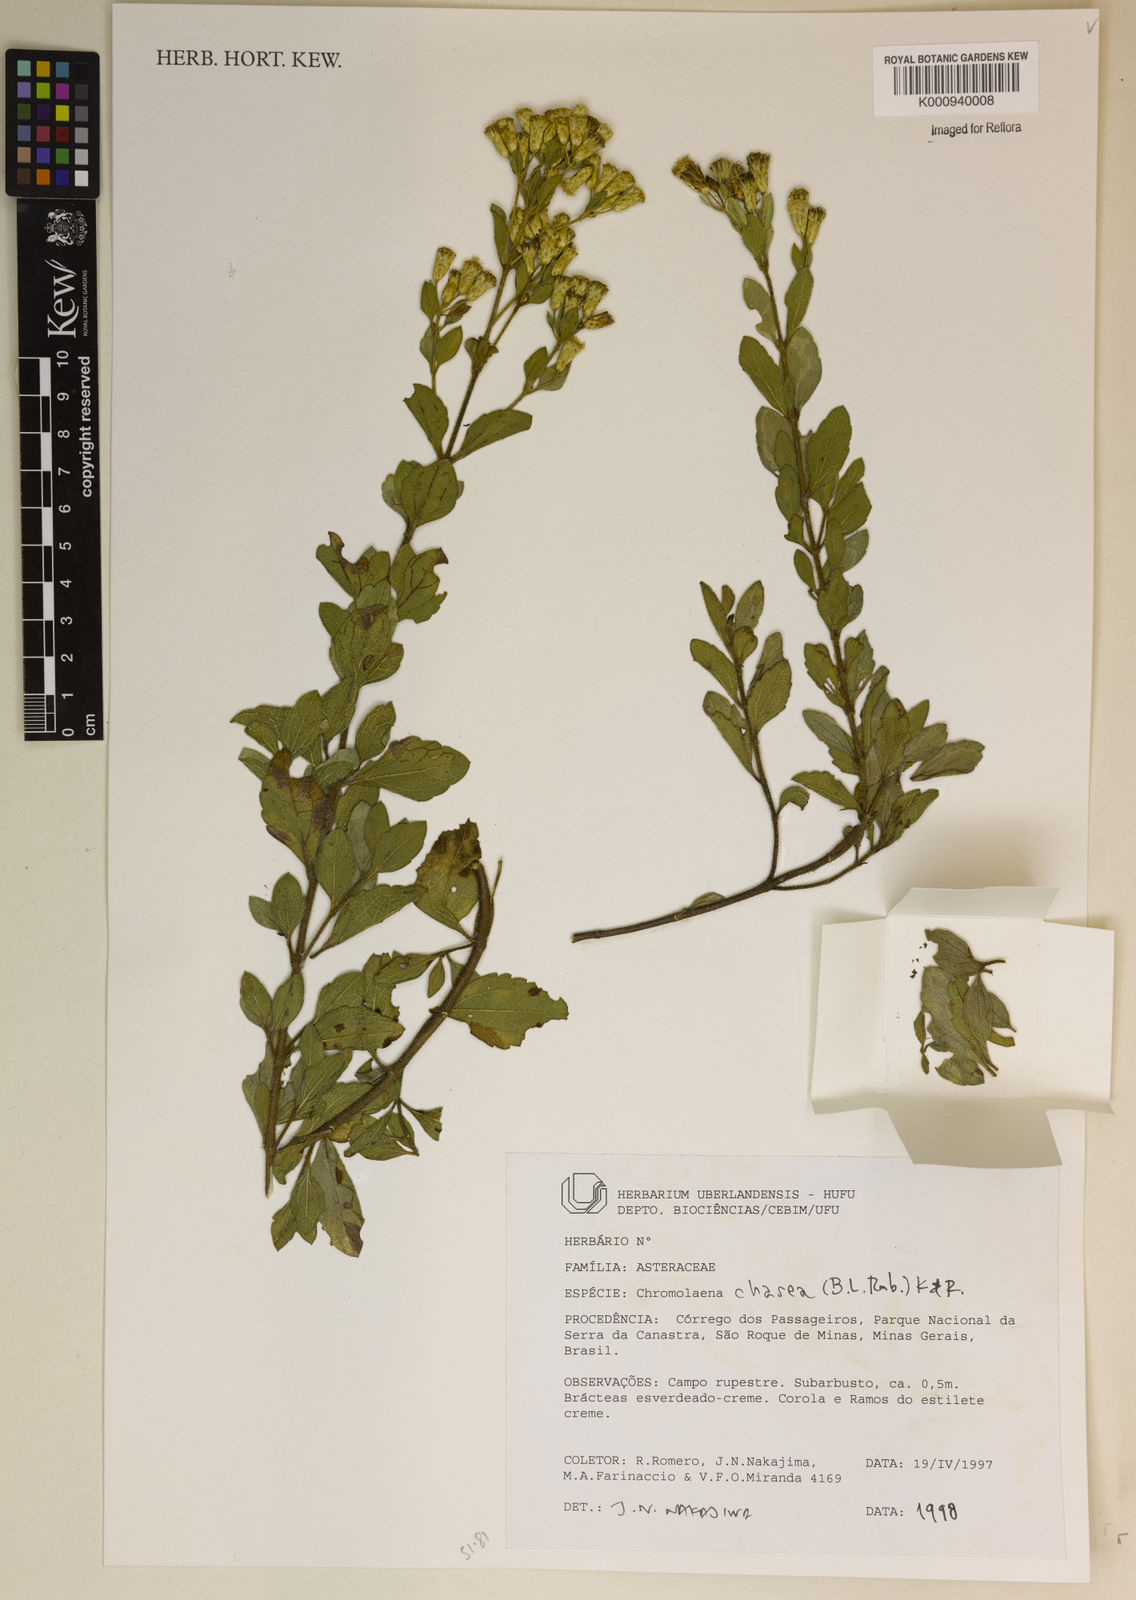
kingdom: Plantae
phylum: Tracheophyta
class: Magnoliopsida
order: Asterales
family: Asteraceae
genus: Chromolaena
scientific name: Chromolaena chaseae
